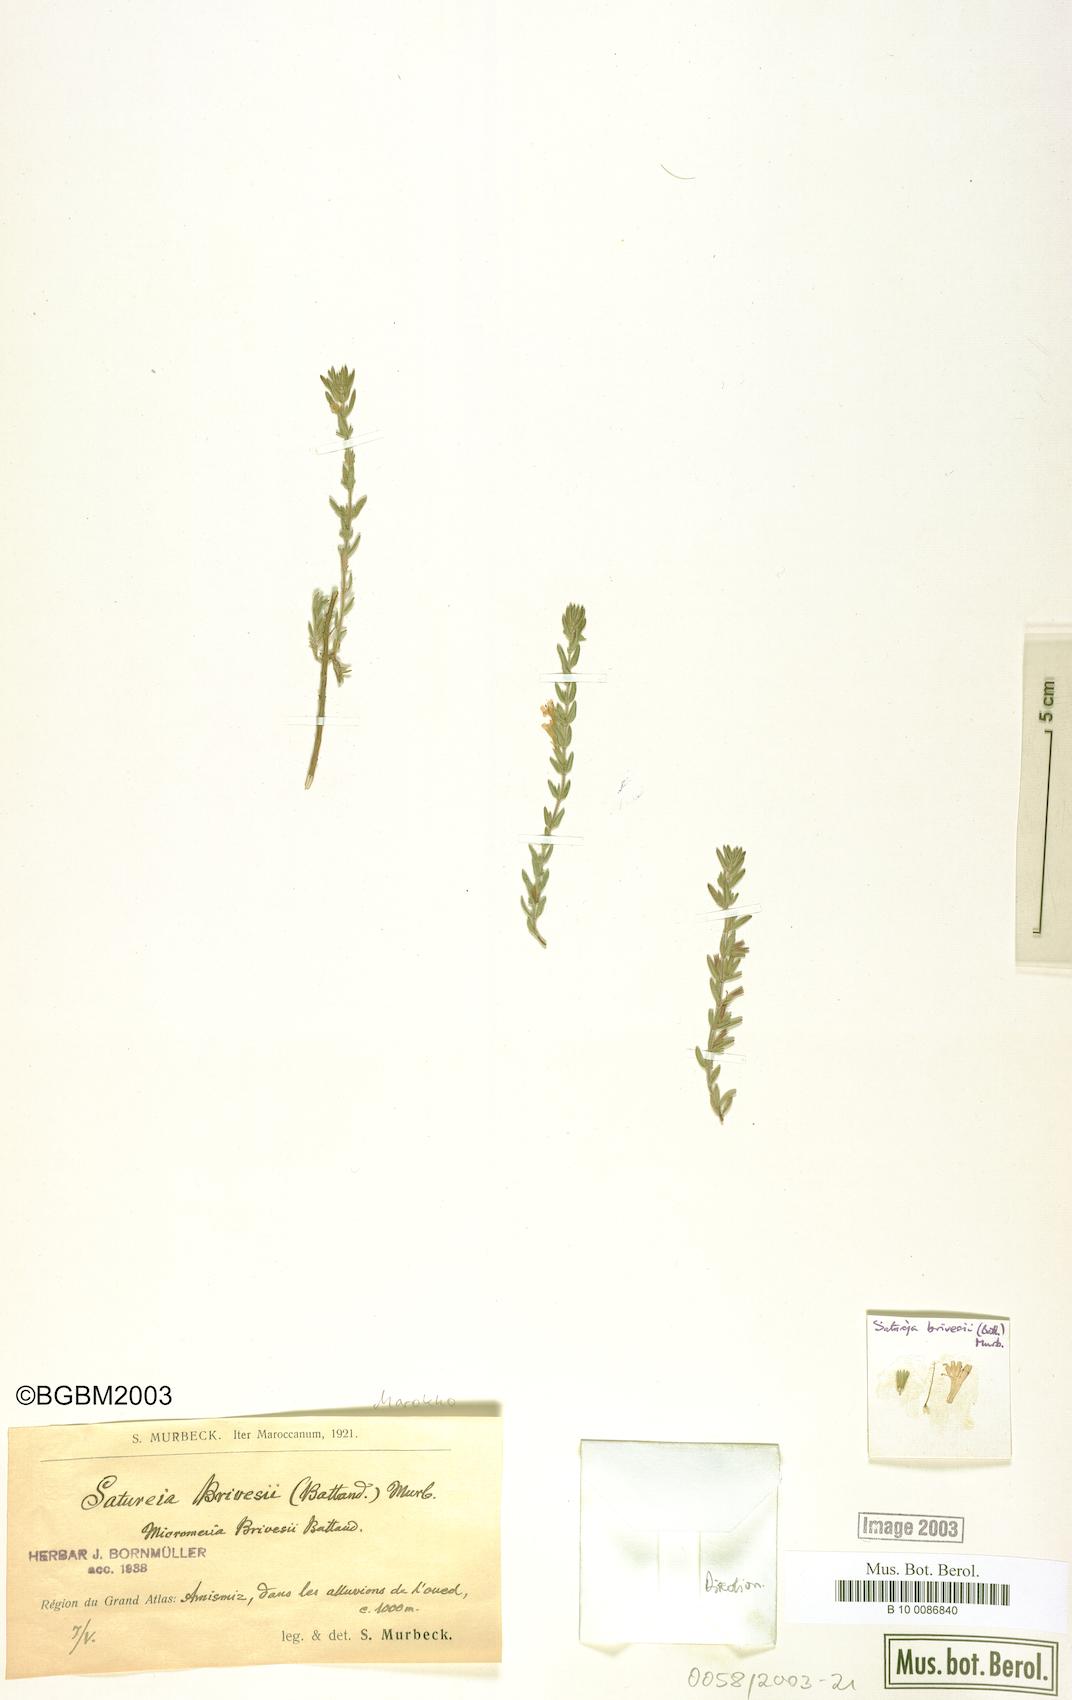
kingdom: Plantae
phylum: Tracheophyta
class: Magnoliopsida
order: Lamiales
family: Lamiaceae
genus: Micromeria
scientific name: Micromeria brivesii
